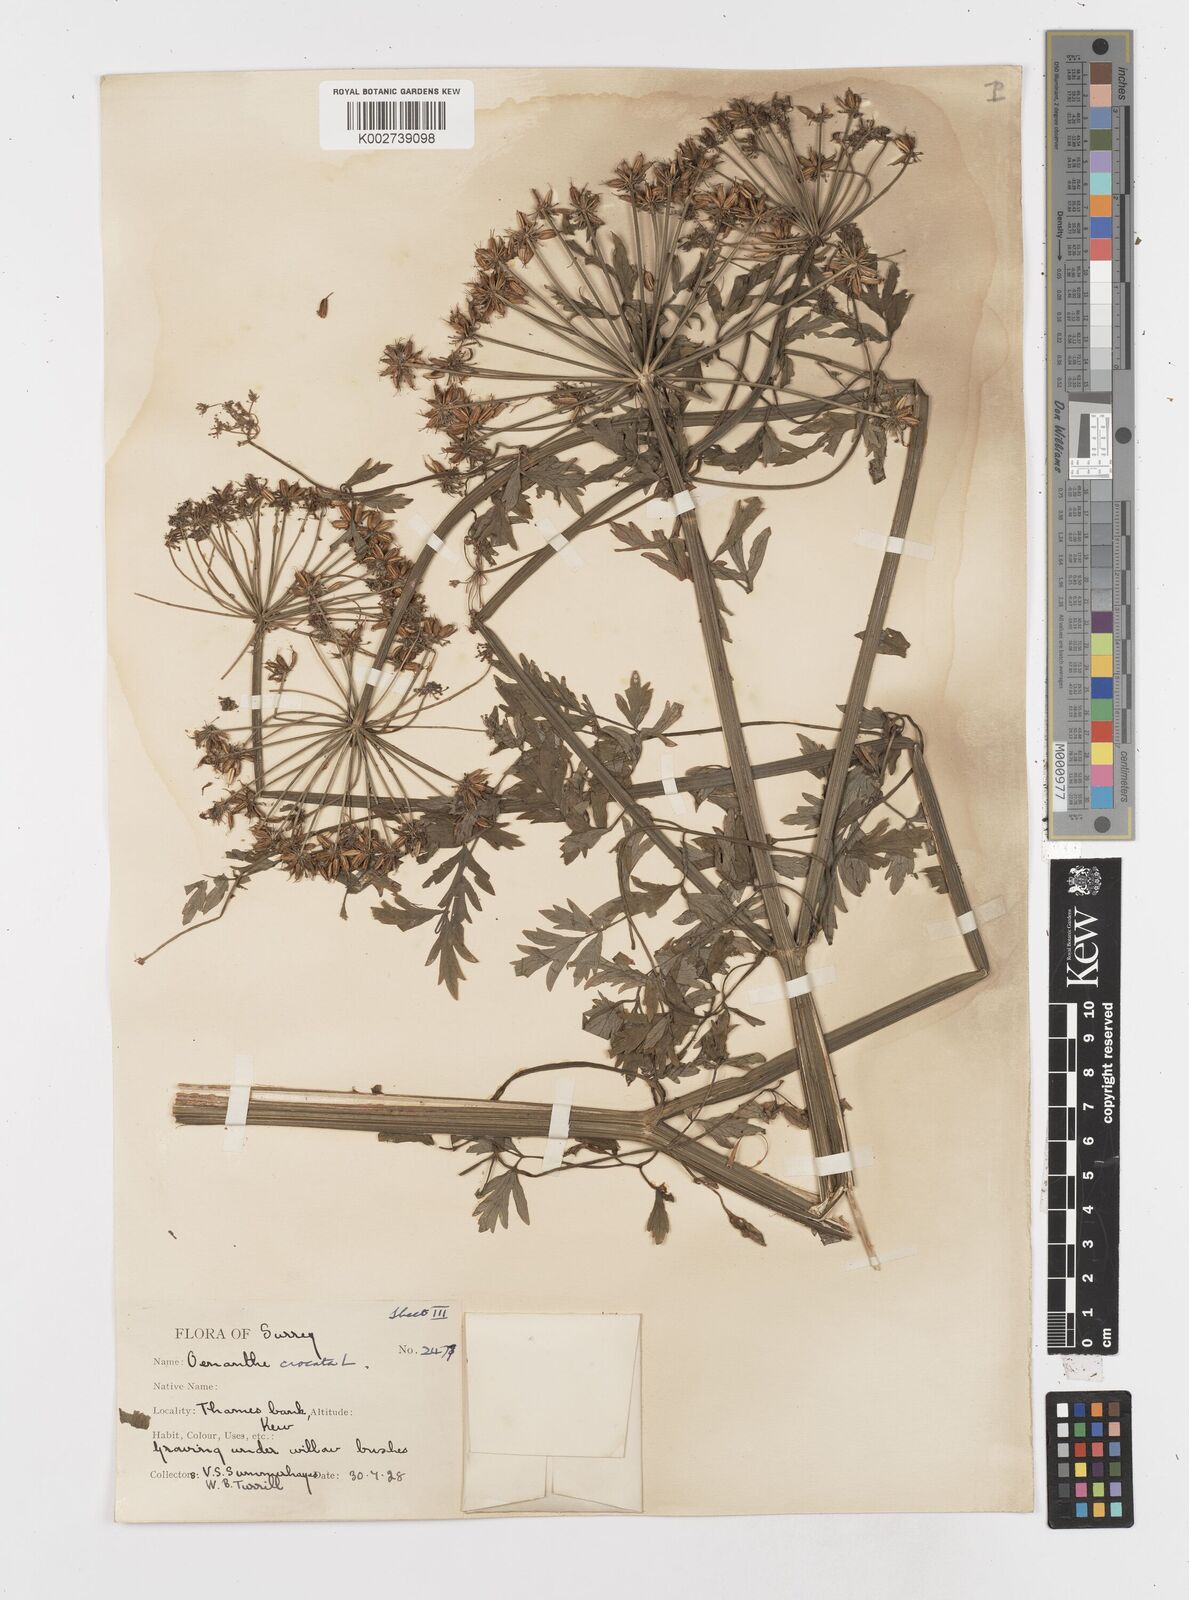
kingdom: Plantae
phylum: Tracheophyta
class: Magnoliopsida
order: Apiales
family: Apiaceae
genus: Oenanthe
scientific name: Oenanthe crocata
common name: Hemlock water-dropwort
